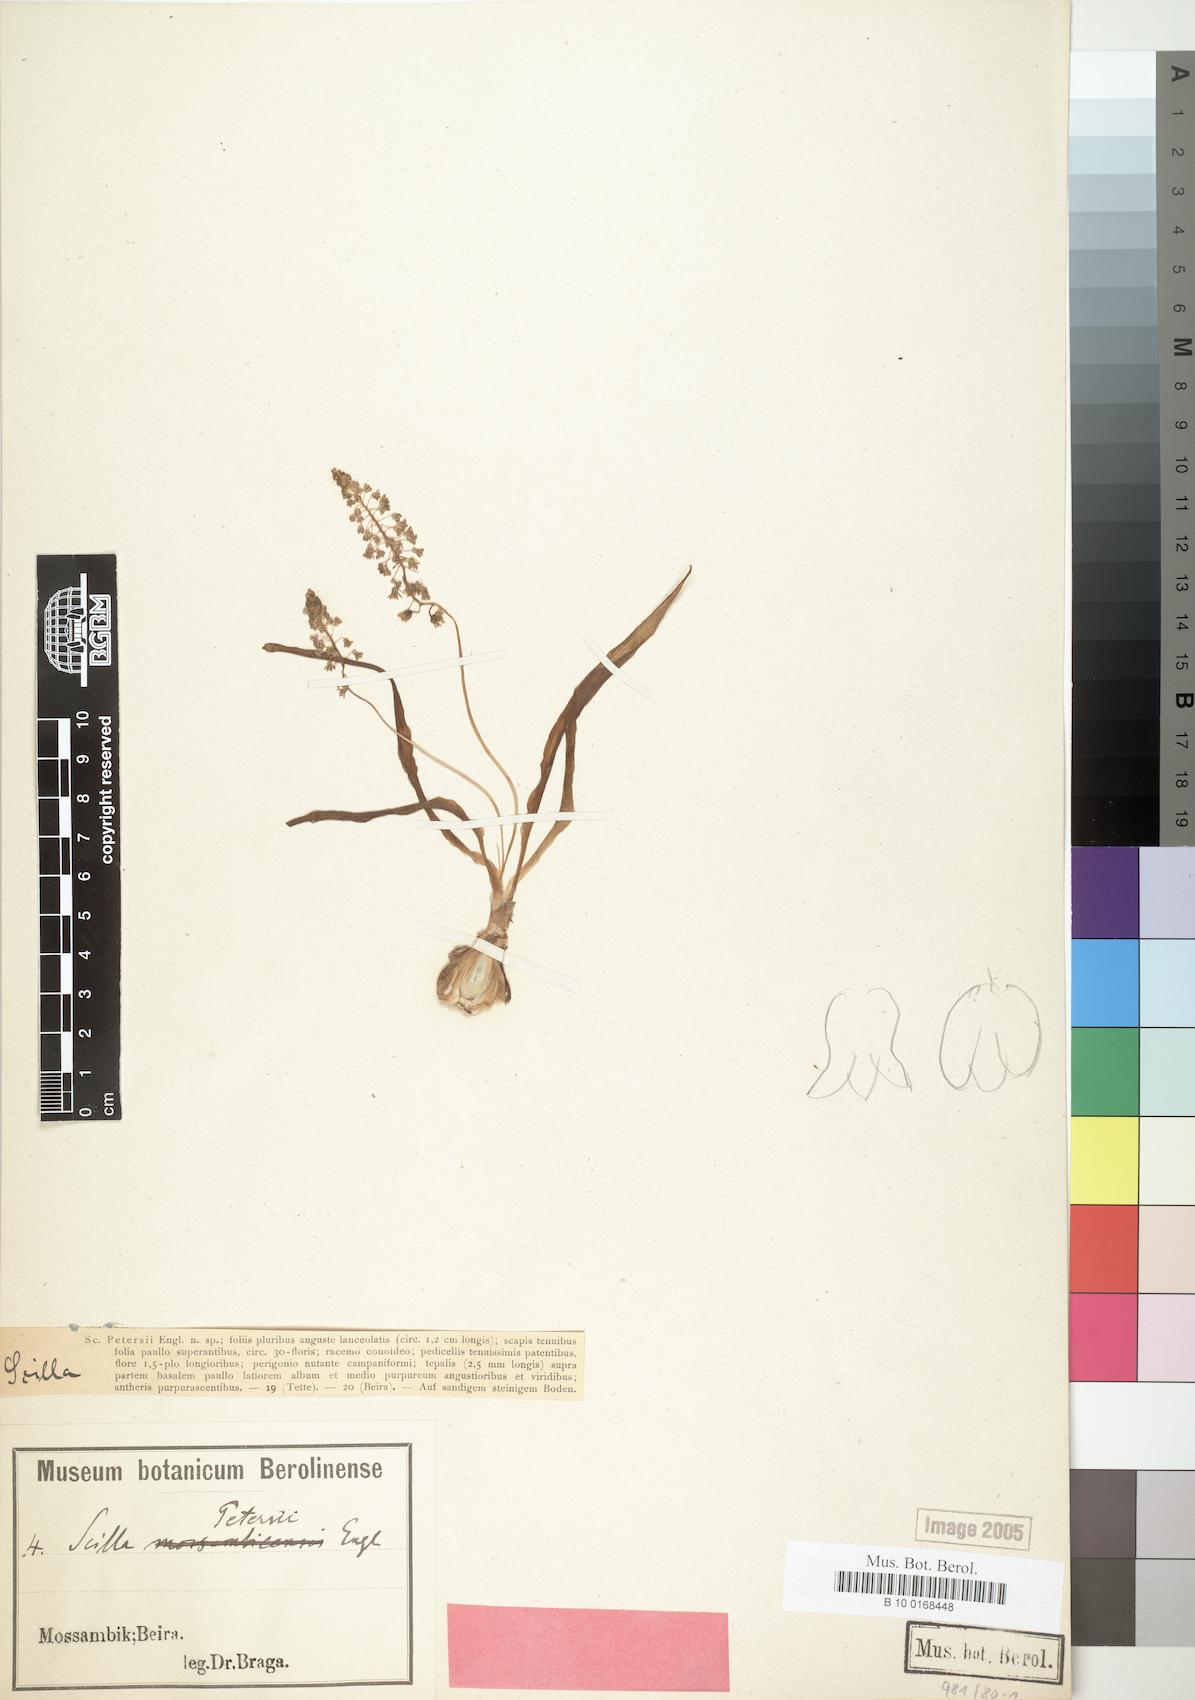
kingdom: Plantae
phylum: Tracheophyta
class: Liliopsida
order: Asparagales
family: Asparagaceae
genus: Scilla
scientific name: Scilla petersii
